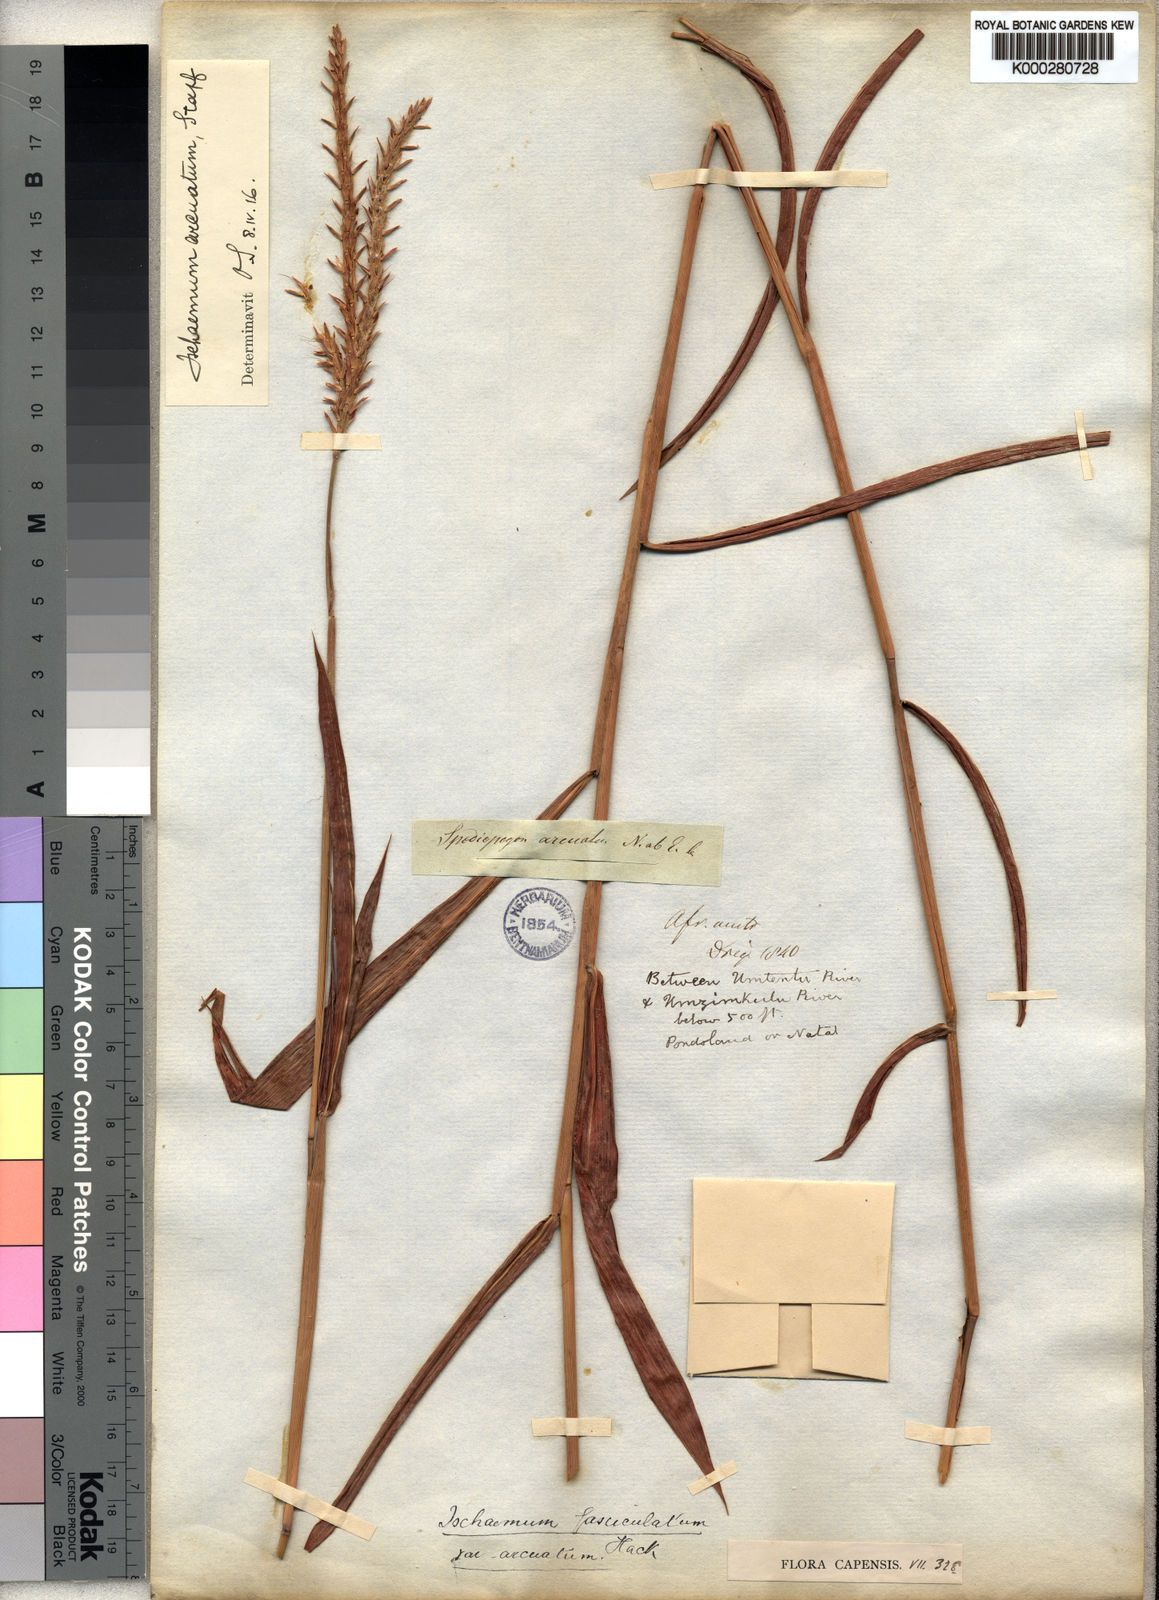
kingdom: Plantae
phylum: Tracheophyta
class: Liliopsida
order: Poales
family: Poaceae
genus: Ischaemum
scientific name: Ischaemum polystachyum
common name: Paddle grass
